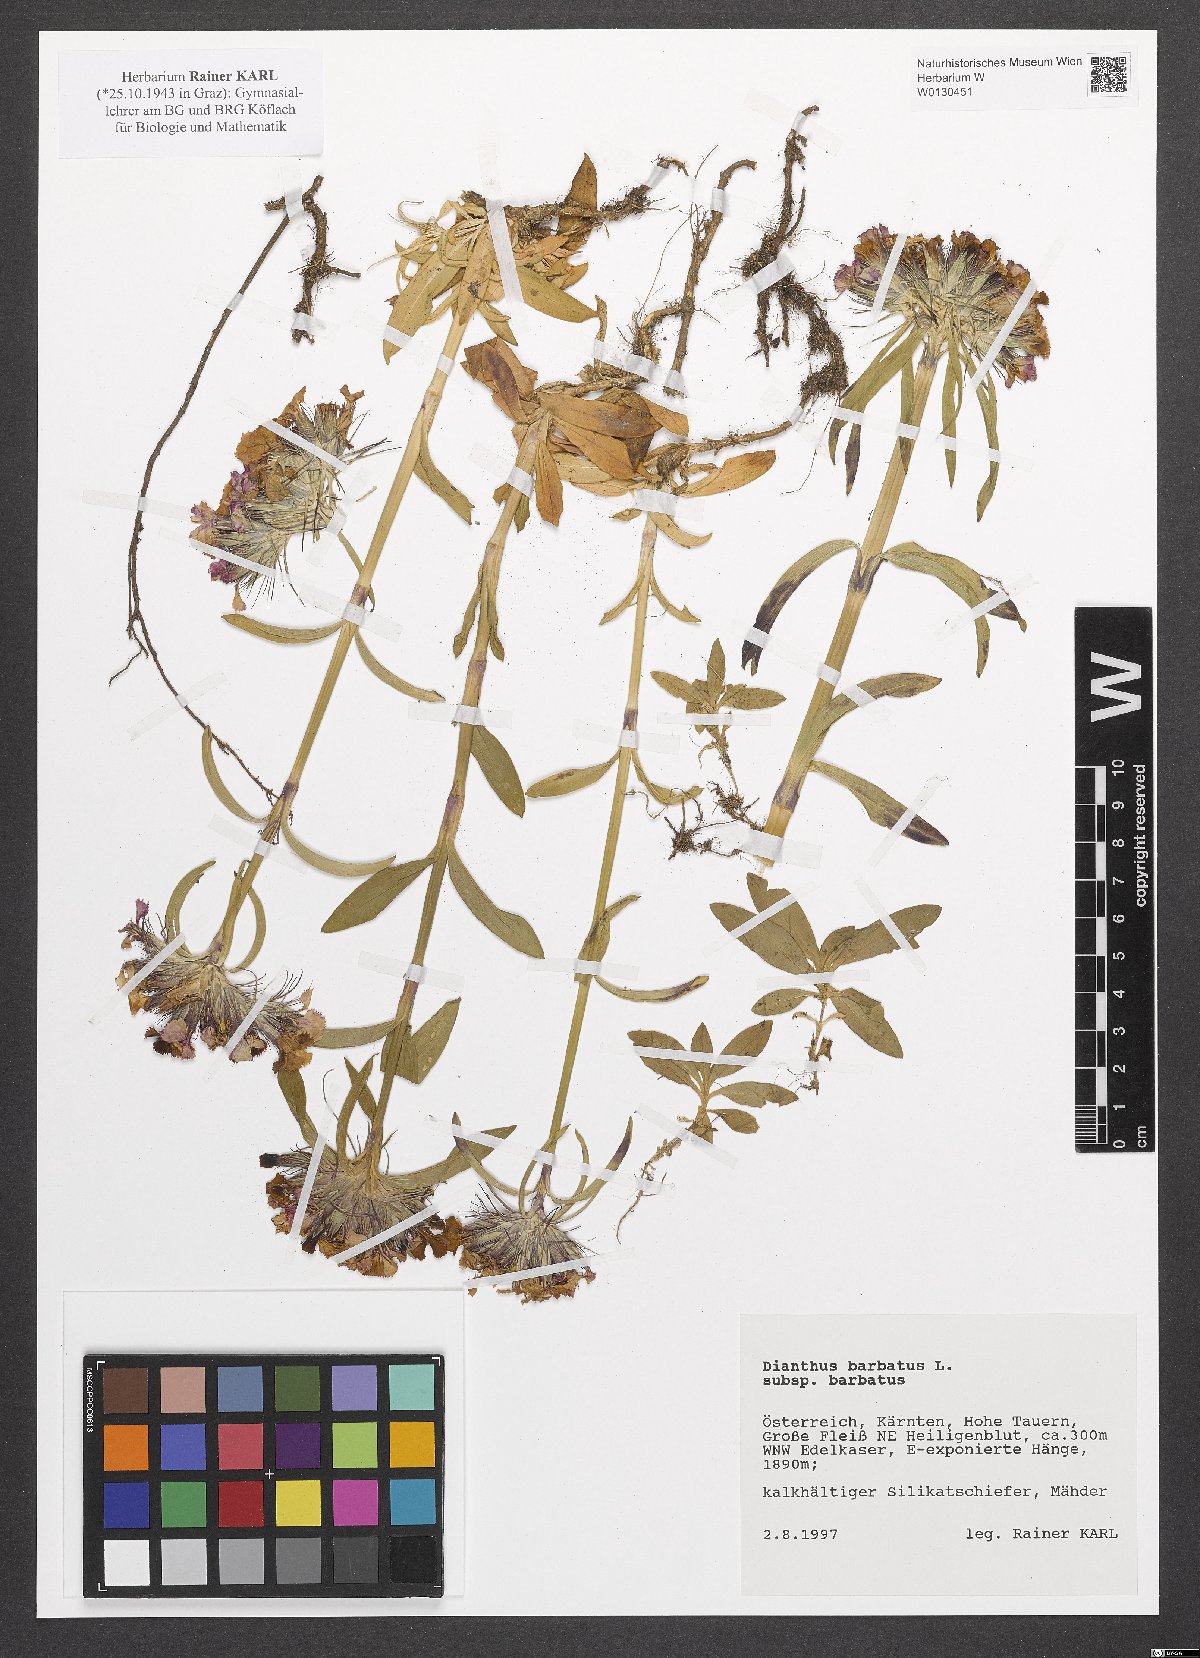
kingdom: Plantae
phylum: Tracheophyta
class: Magnoliopsida
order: Caryophyllales
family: Caryophyllaceae
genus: Dianthus
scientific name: Dianthus barbatus
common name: Sweet-william
